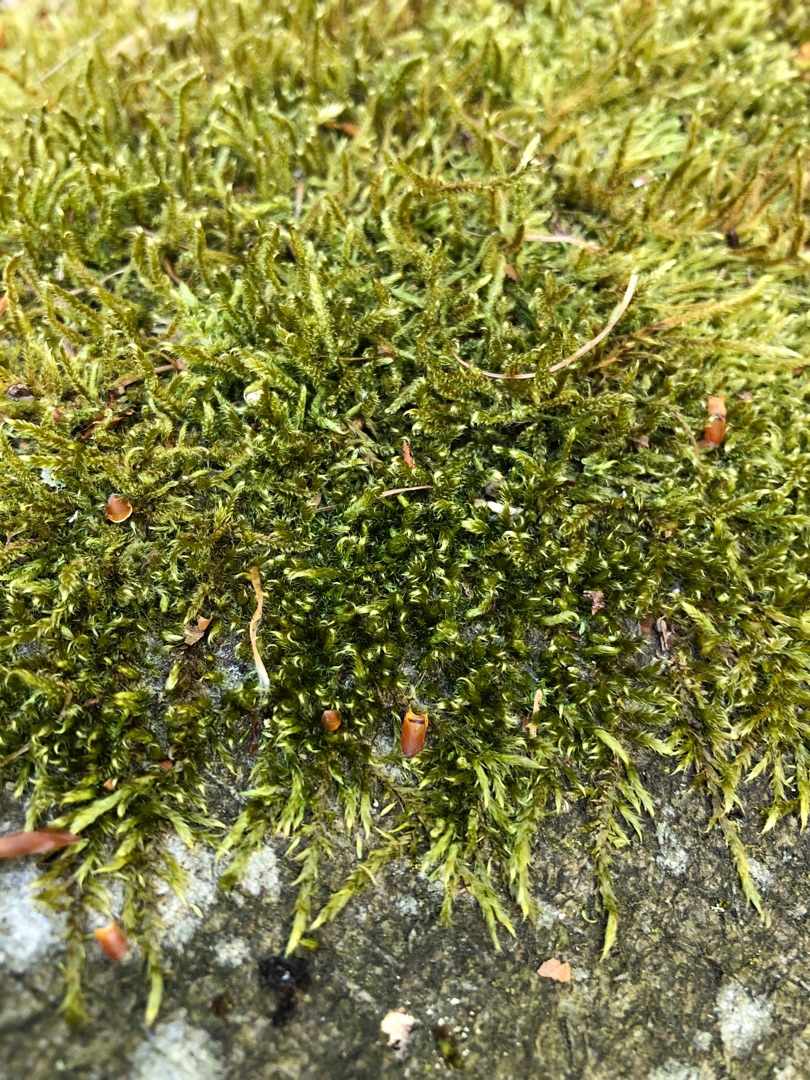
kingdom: Plantae
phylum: Bryophyta
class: Bryopsida
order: Hypnales
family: Hypnaceae
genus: Hypnum
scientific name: Hypnum cupressiforme
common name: Almindelig cypresmos
